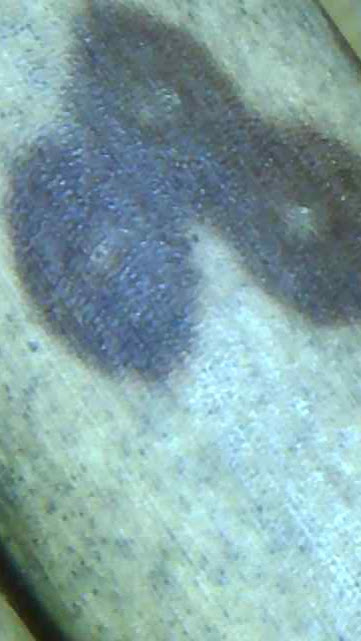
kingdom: Fungi
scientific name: Fungi
